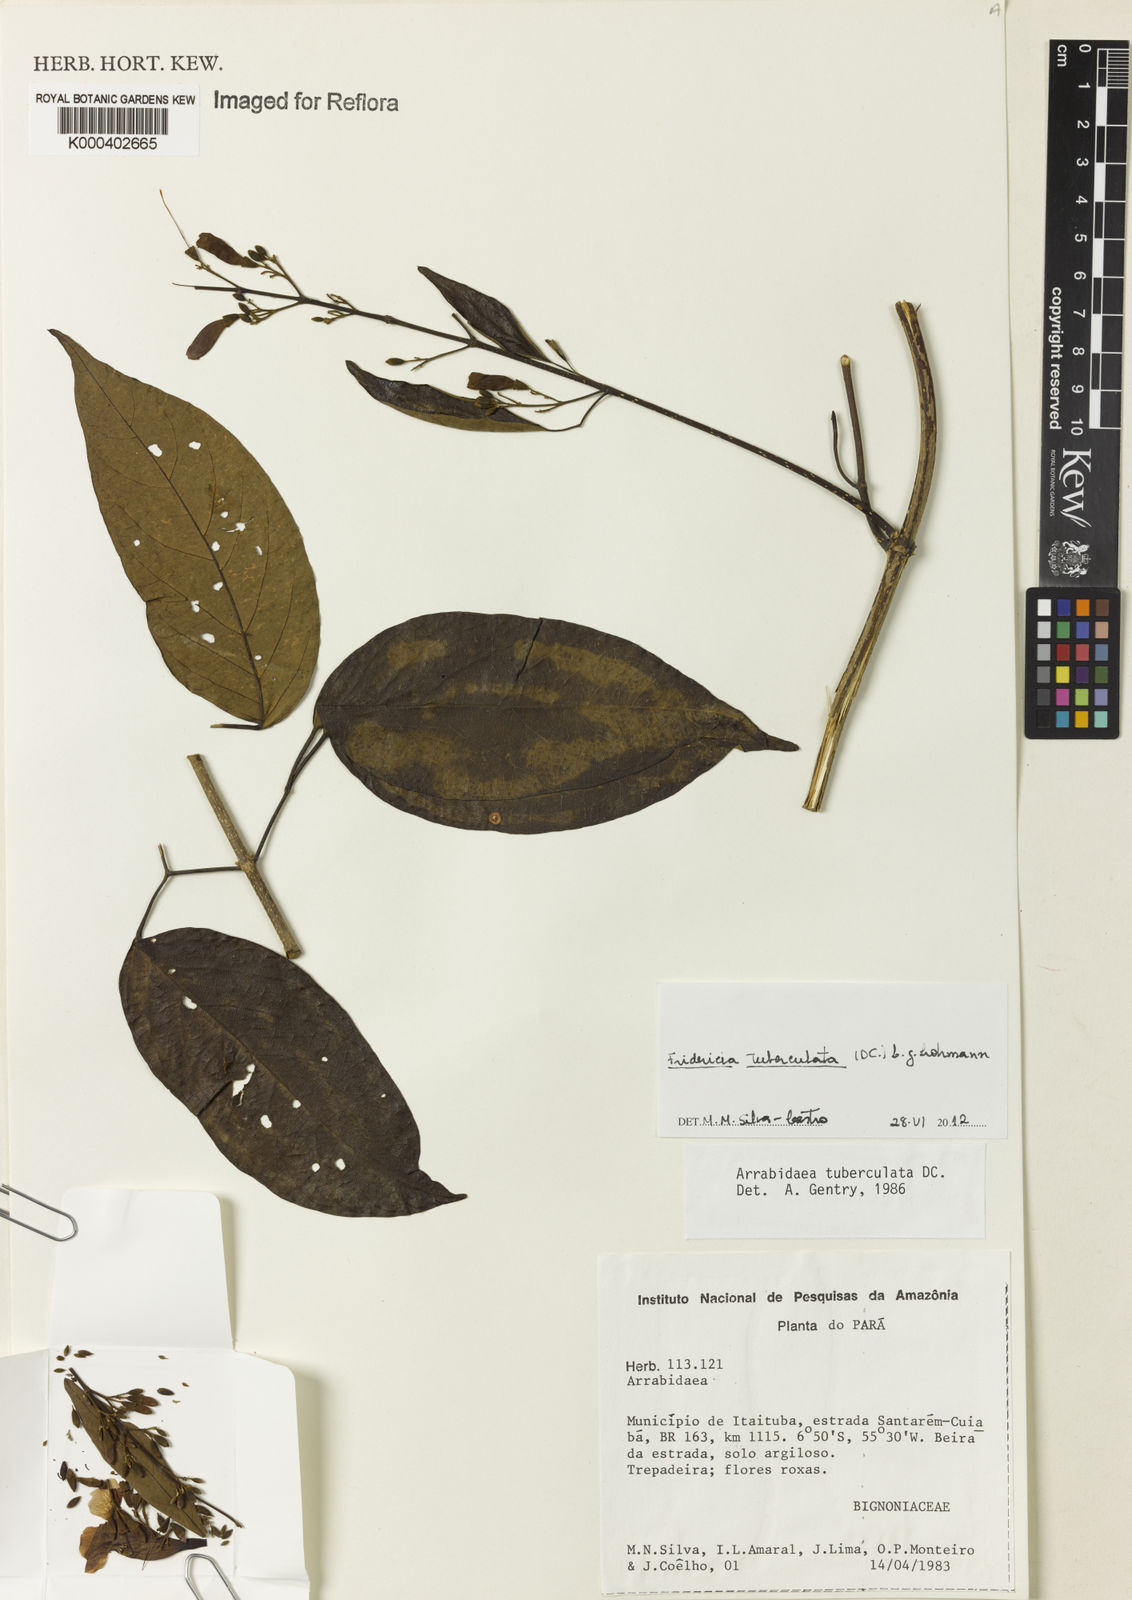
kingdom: Plantae
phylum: Tracheophyta
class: Magnoliopsida
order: Lamiales
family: Bignoniaceae
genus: Fridericia
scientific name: Fridericia tuberculata
